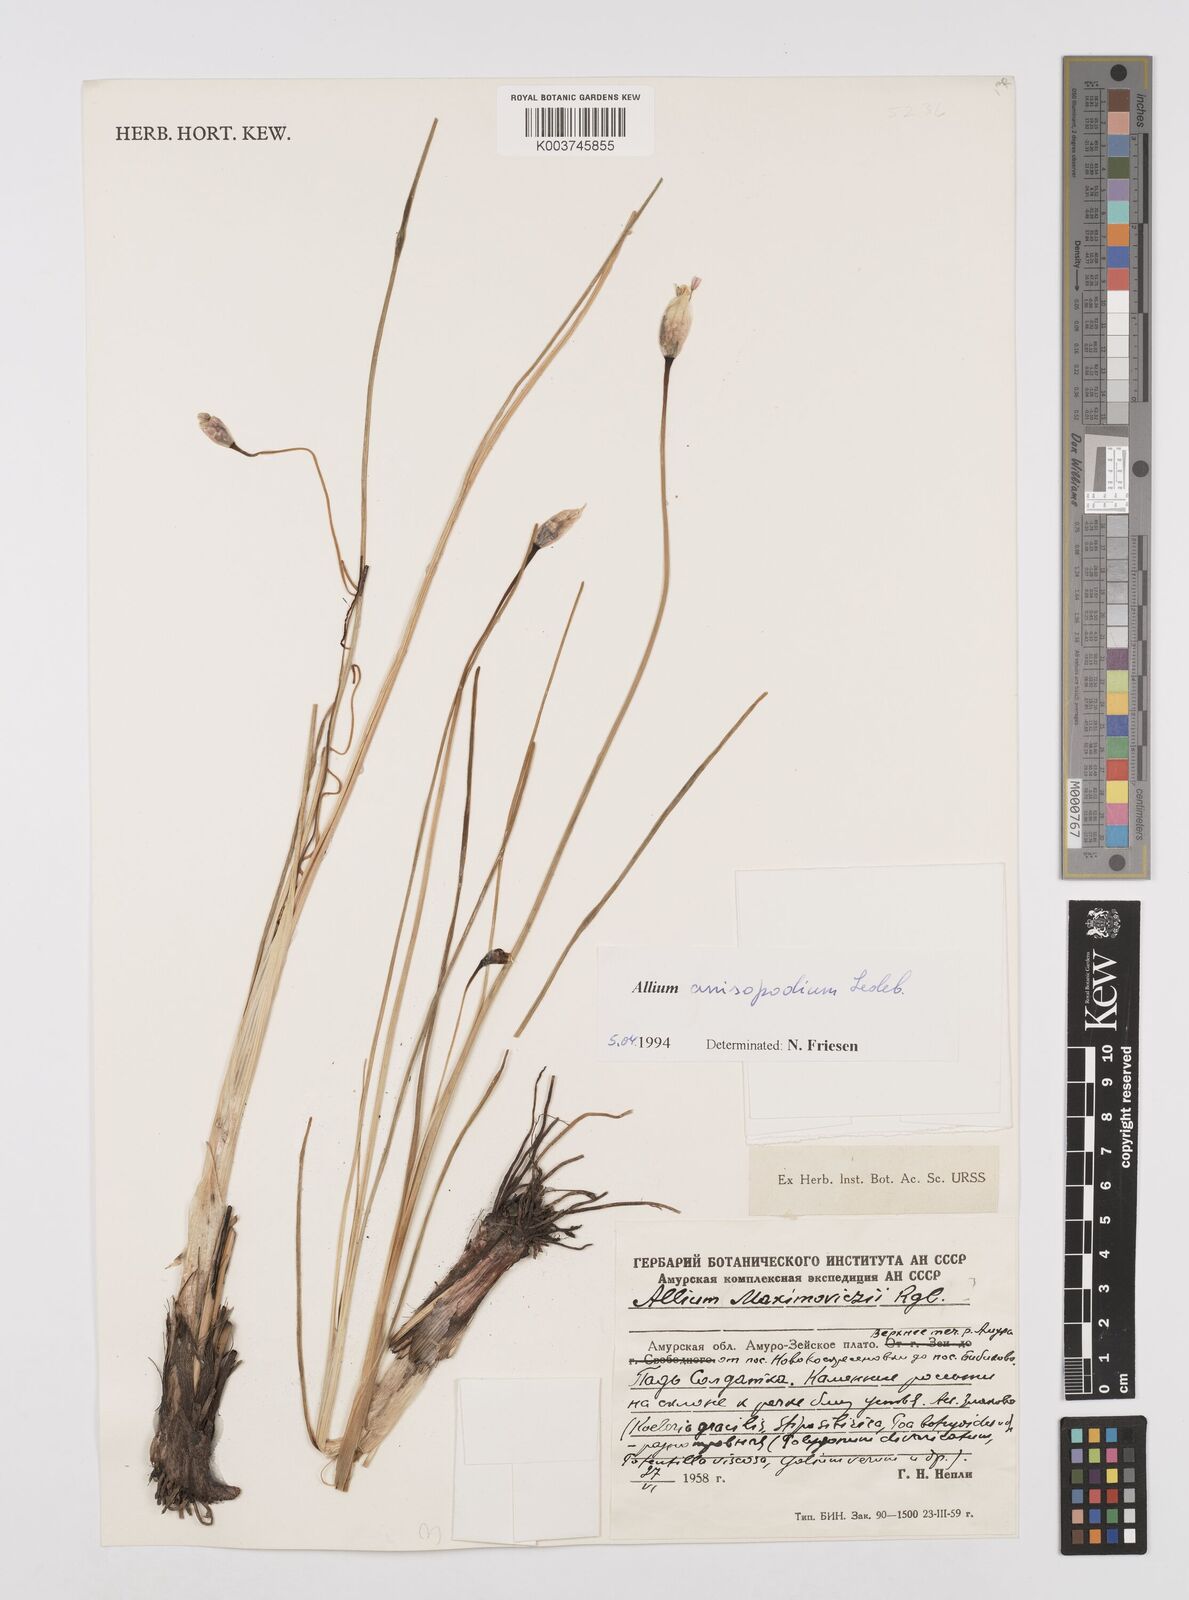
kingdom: Plantae
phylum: Tracheophyta
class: Liliopsida
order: Asparagales
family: Amaryllidaceae
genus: Allium
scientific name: Allium anisopodium
